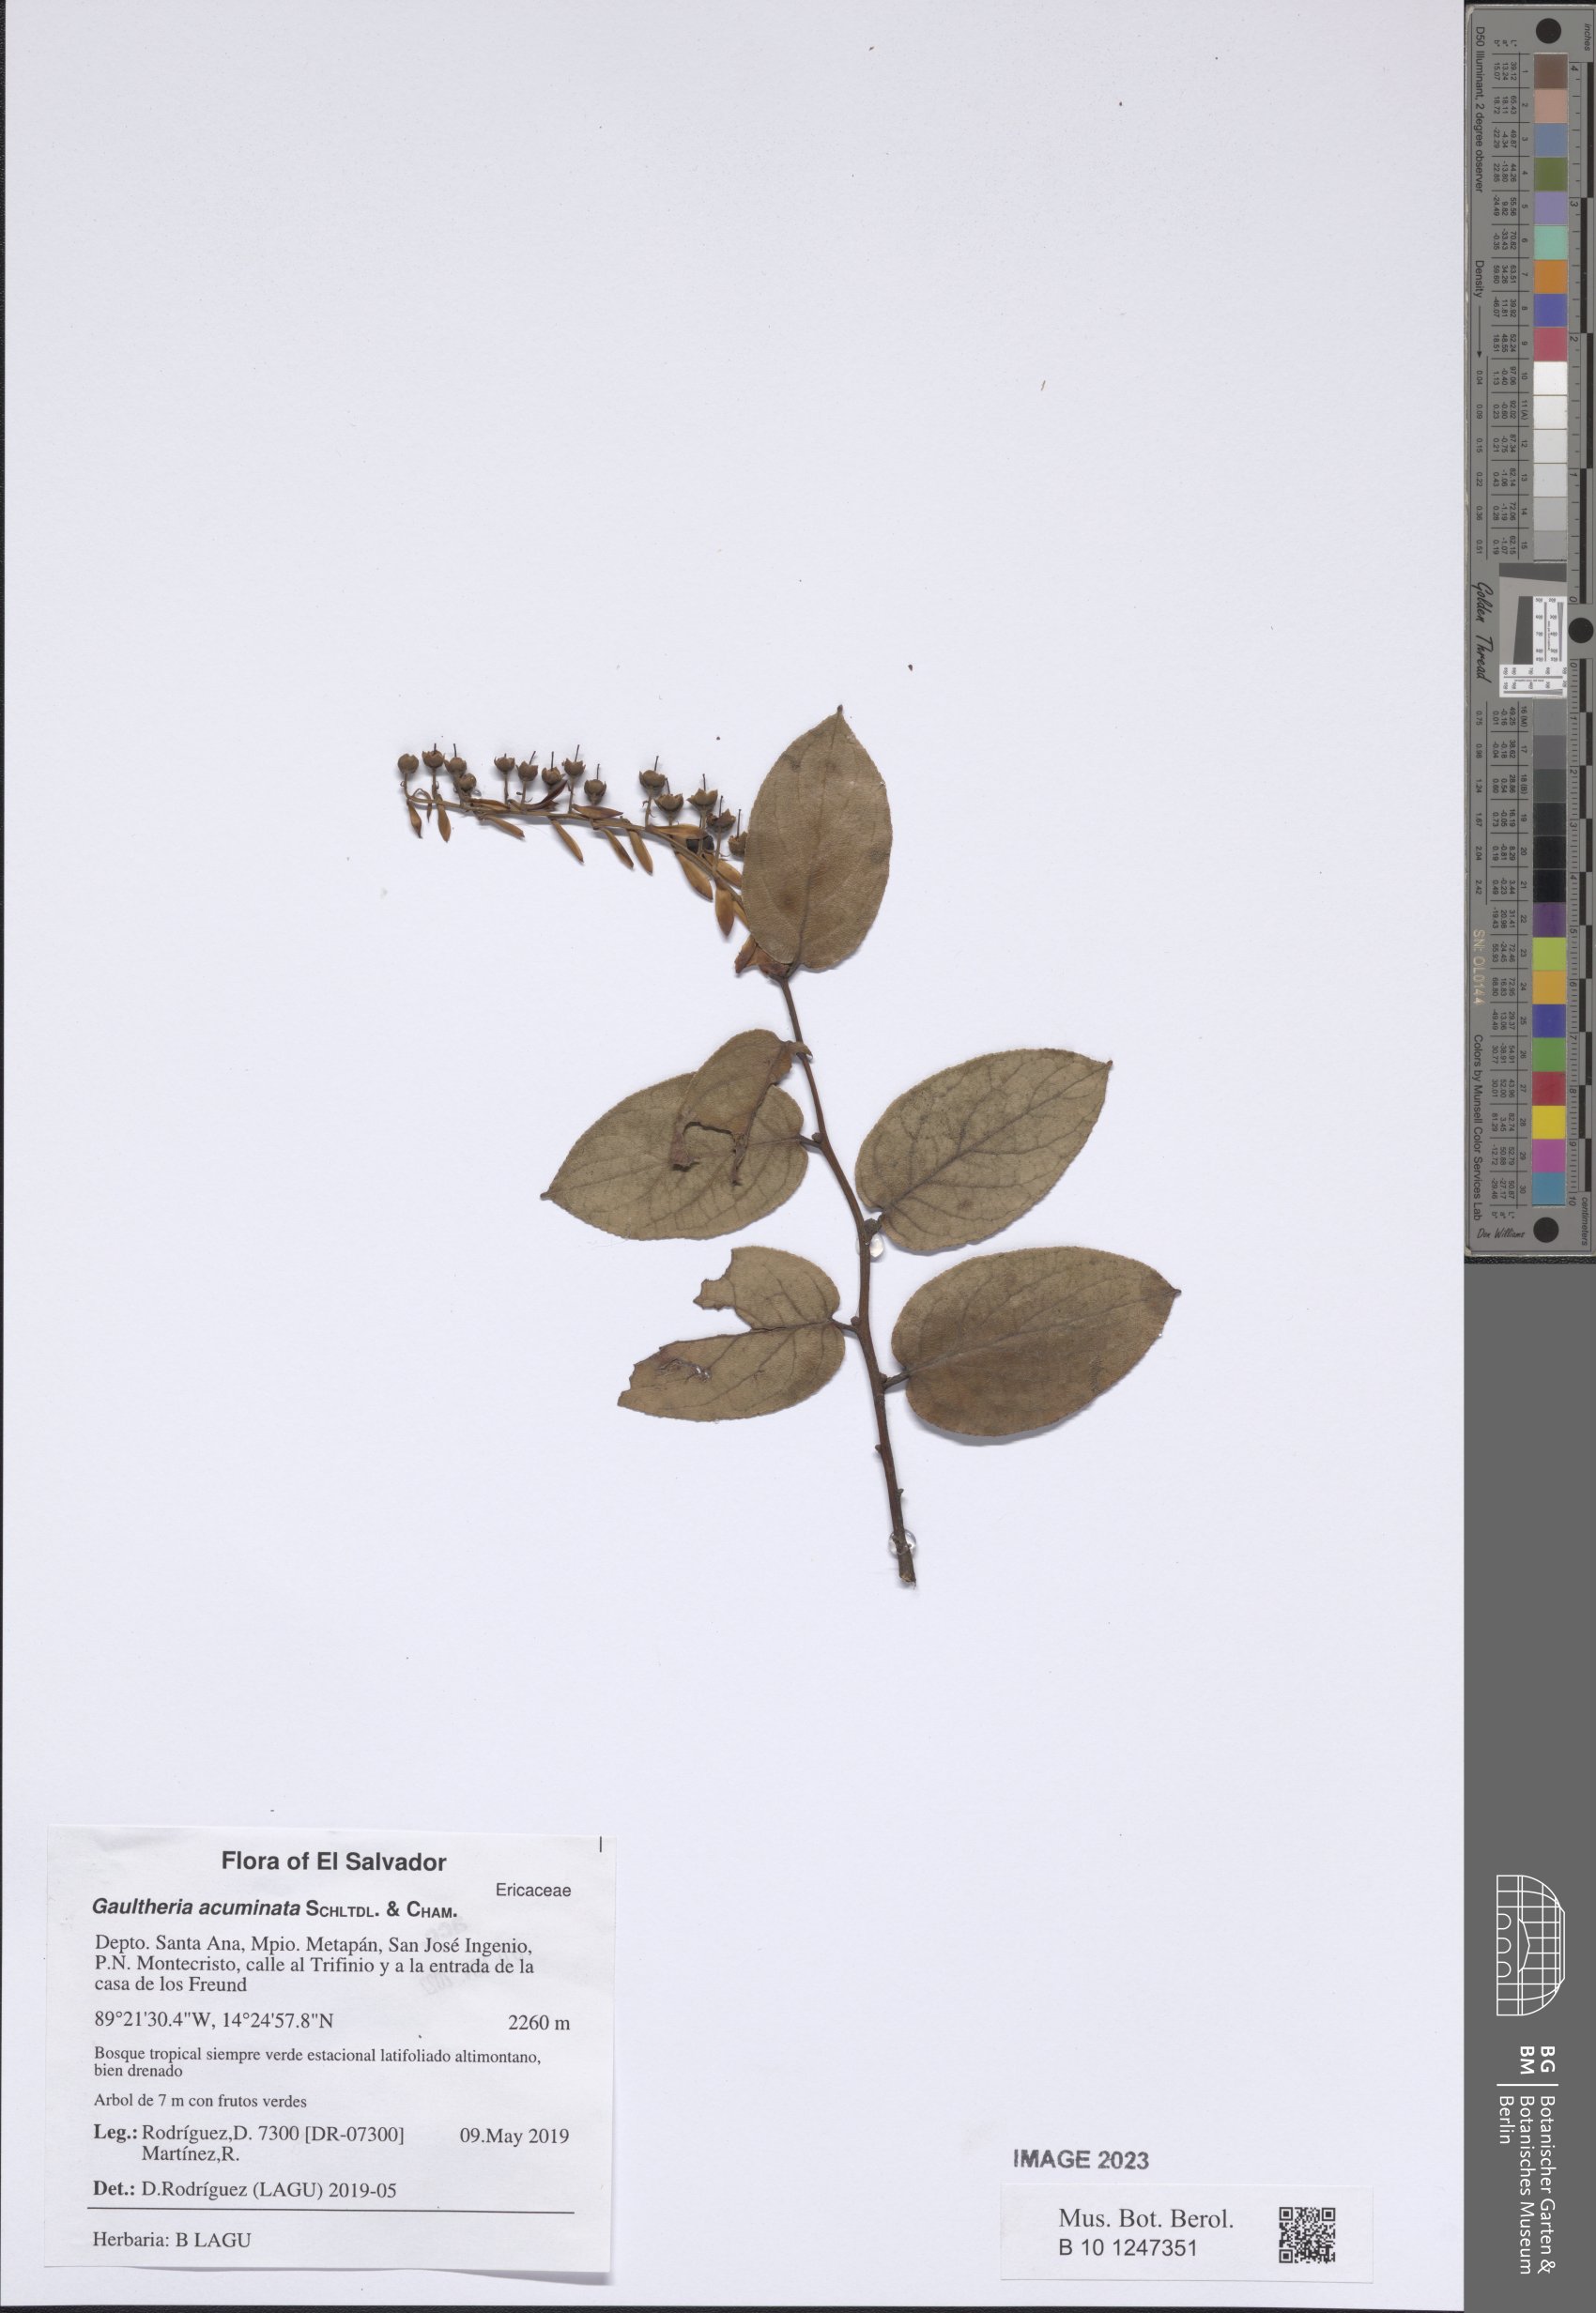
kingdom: Plantae
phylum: Tracheophyta
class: Magnoliopsida
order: Ericales
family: Ericaceae
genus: Gaultheria
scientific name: Gaultheria acuminata
